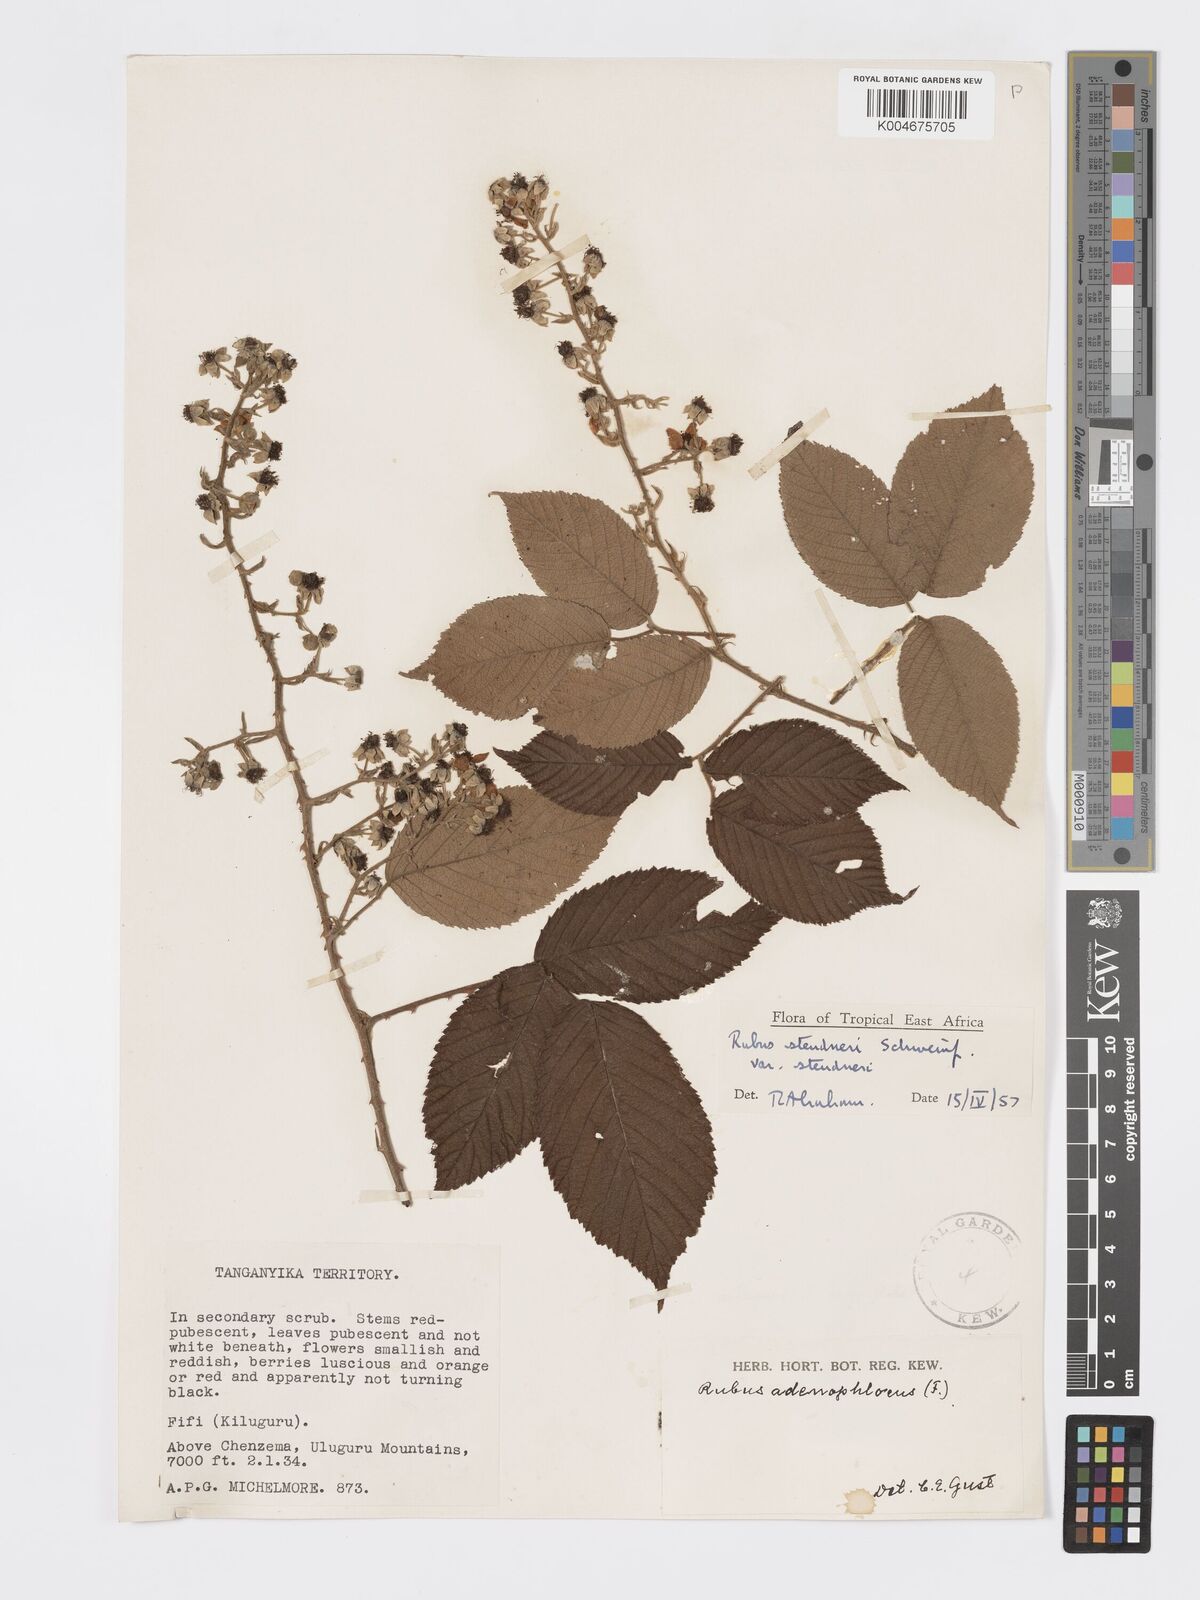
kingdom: Plantae
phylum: Tracheophyta
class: Magnoliopsida
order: Rosales
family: Rosaceae
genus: Rubus
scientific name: Rubus steudneri
